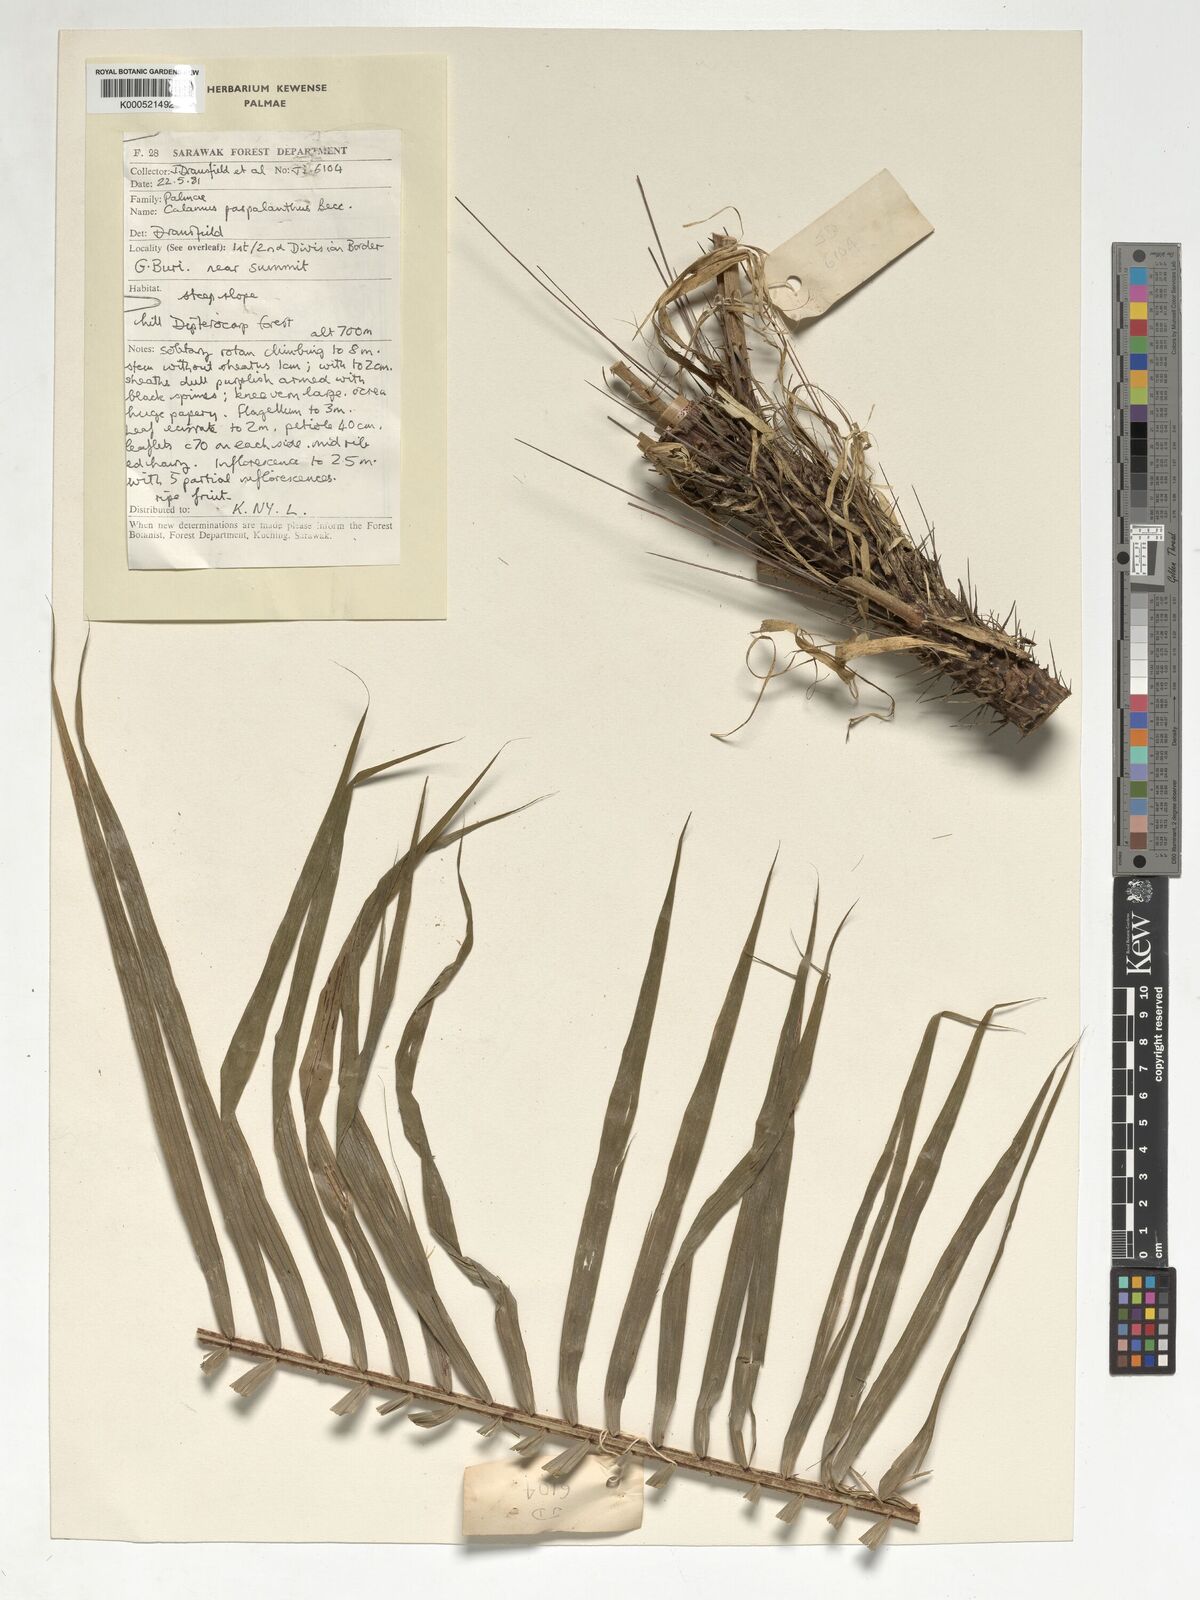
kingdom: Plantae
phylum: Tracheophyta
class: Liliopsida
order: Arecales
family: Arecaceae
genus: Calamus
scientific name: Calamus paspalanthus
